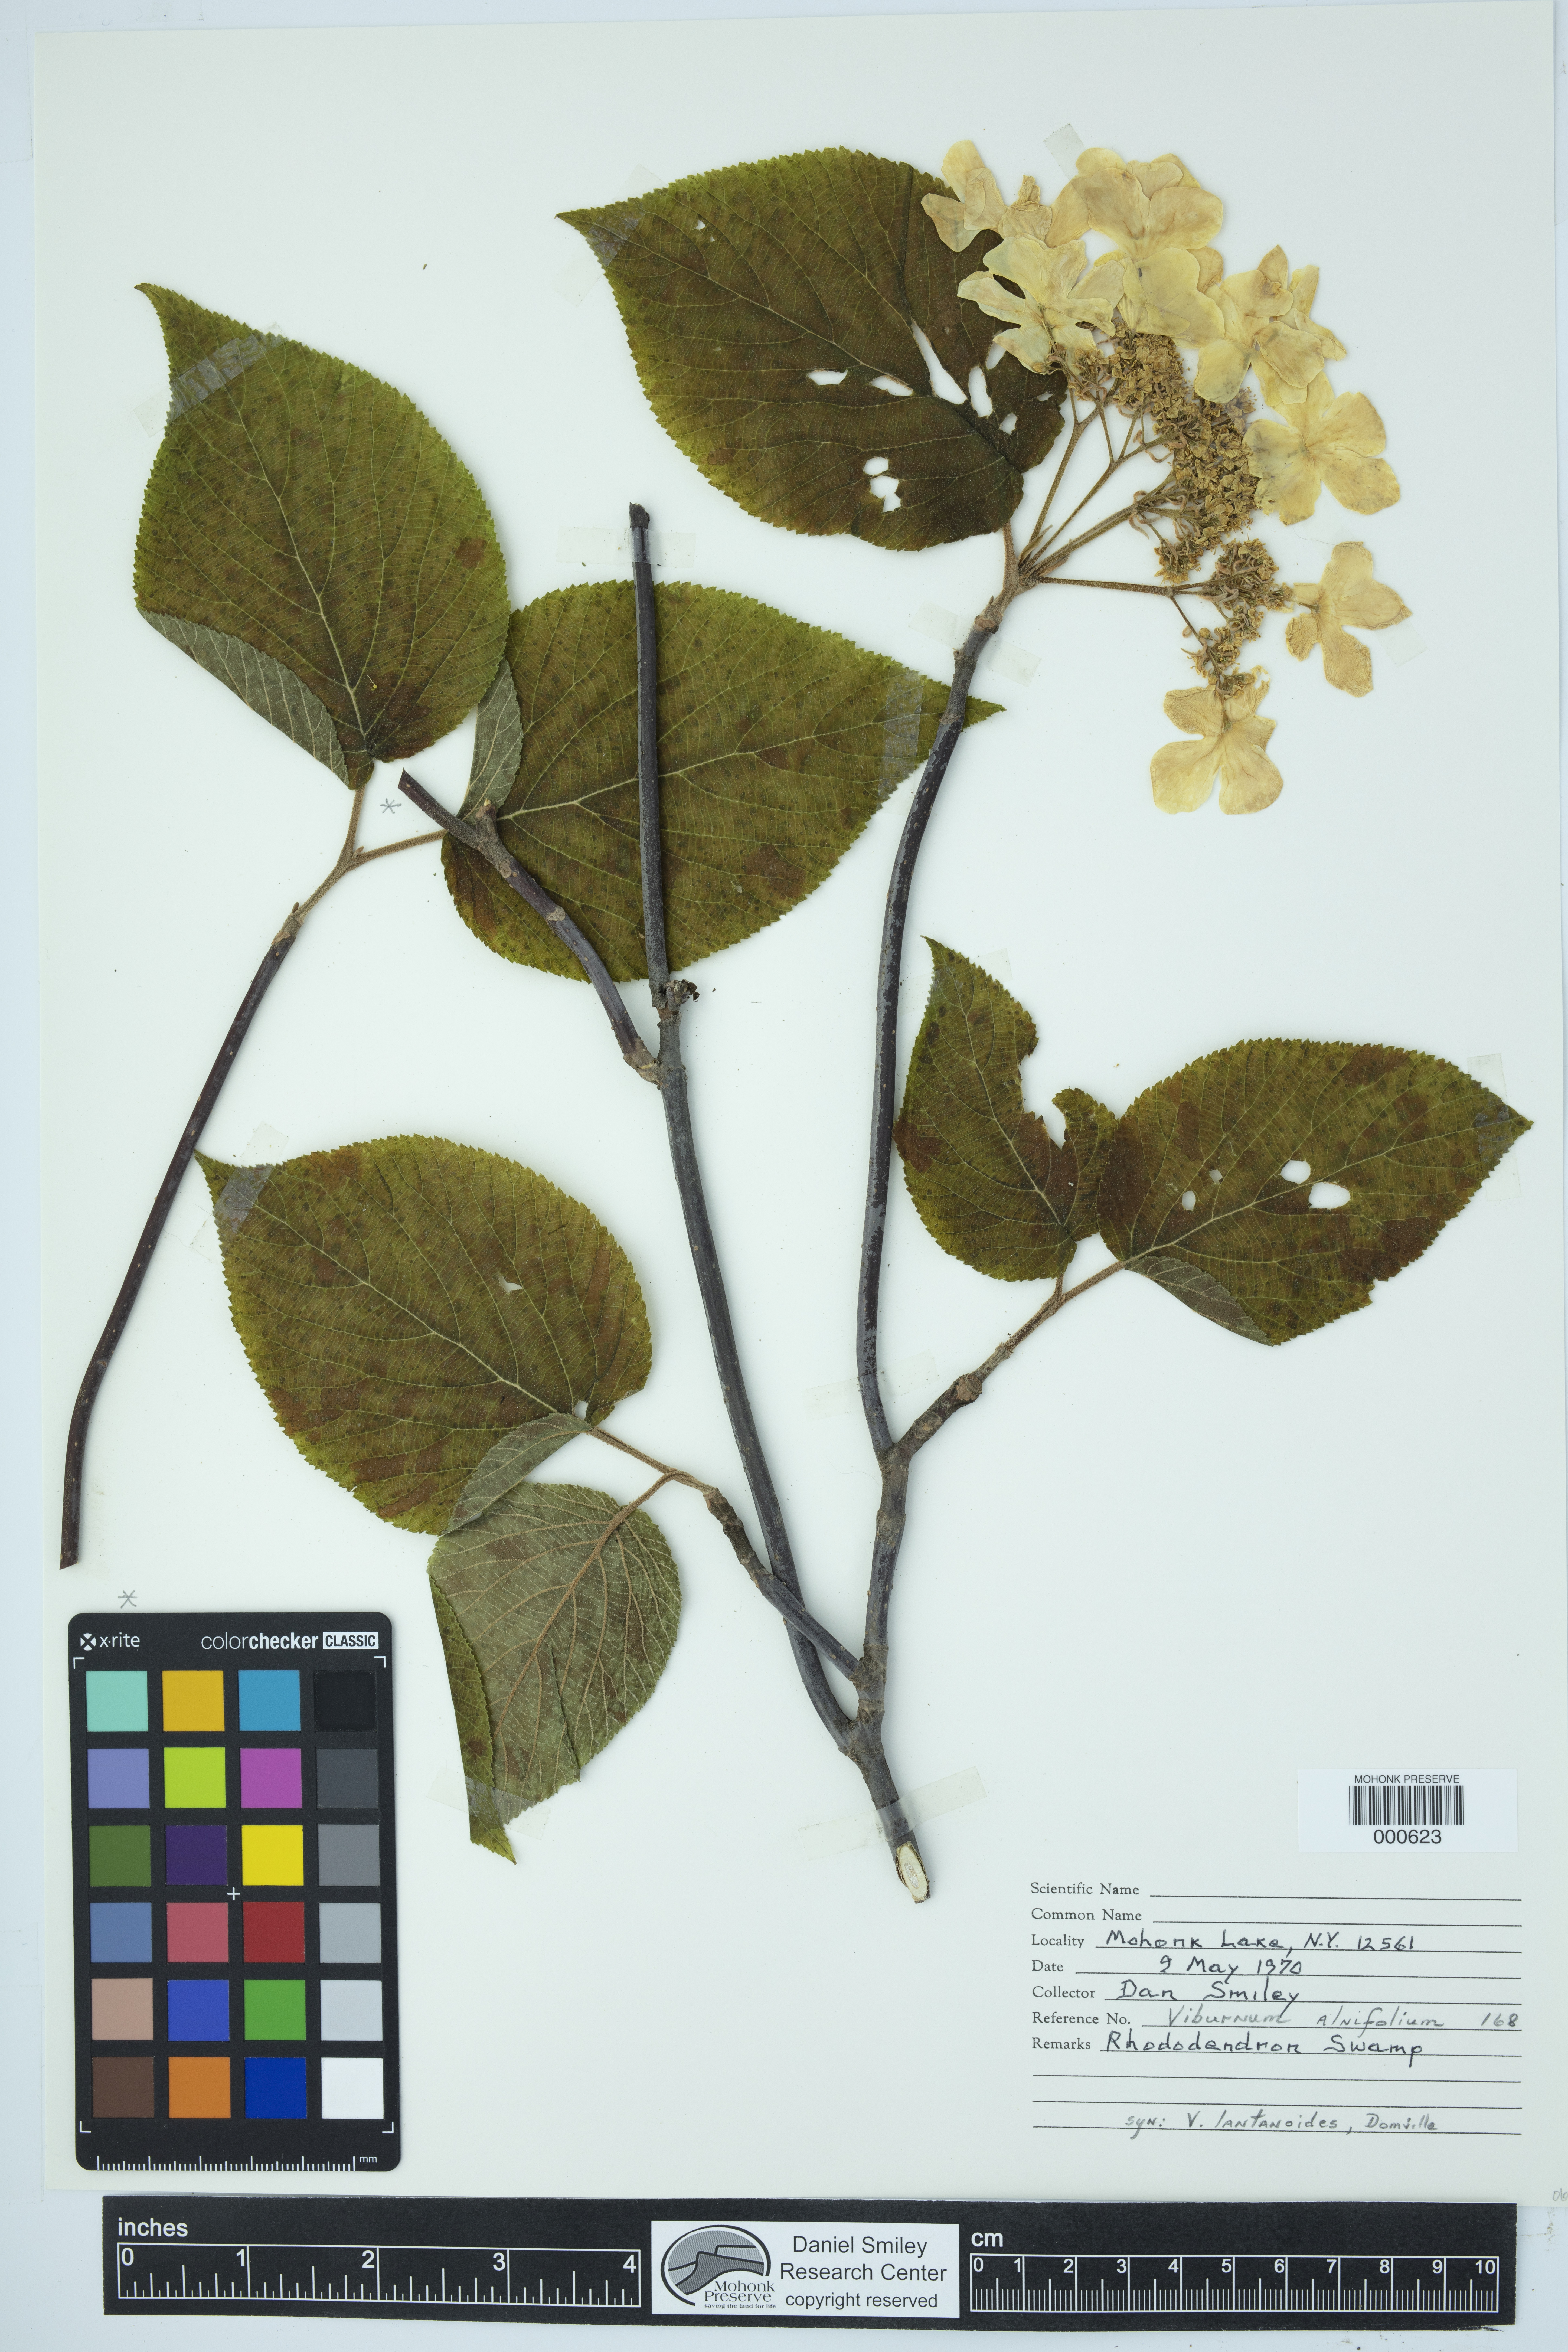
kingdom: Plantae
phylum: Tracheophyta
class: Magnoliopsida
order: Dipsacales
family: Viburnaceae
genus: Viburnum
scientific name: Viburnum lantanoides
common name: Hobblebush
